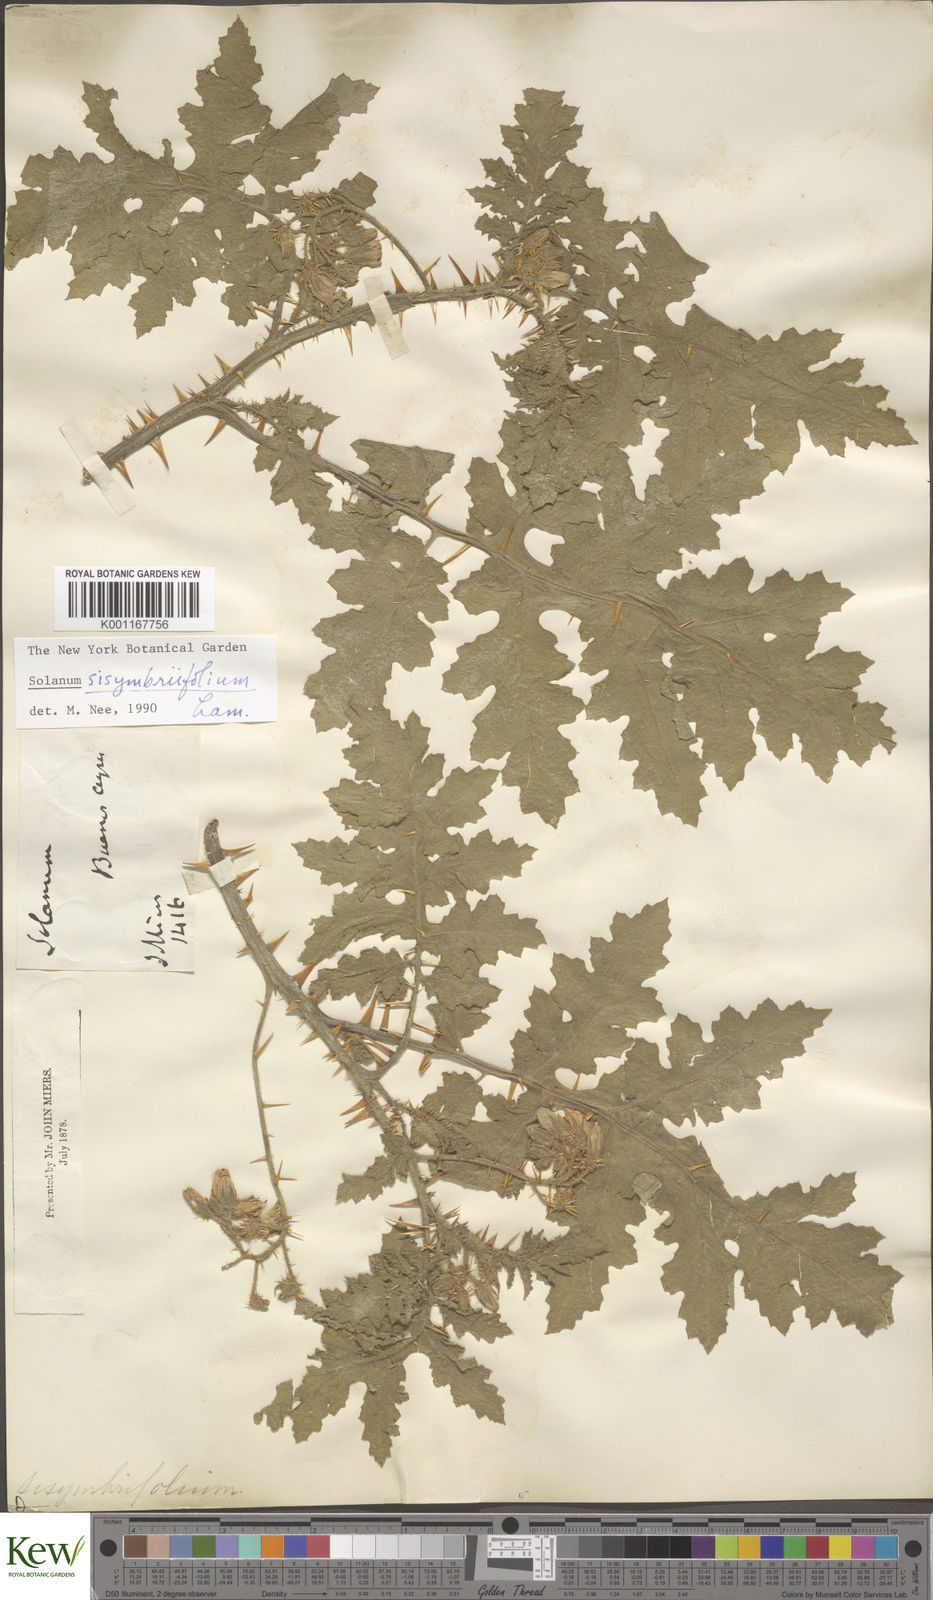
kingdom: Plantae
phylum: Tracheophyta
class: Magnoliopsida
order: Solanales
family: Solanaceae
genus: Solanum
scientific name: Solanum sisymbriifolium
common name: Red buffalo-bur
